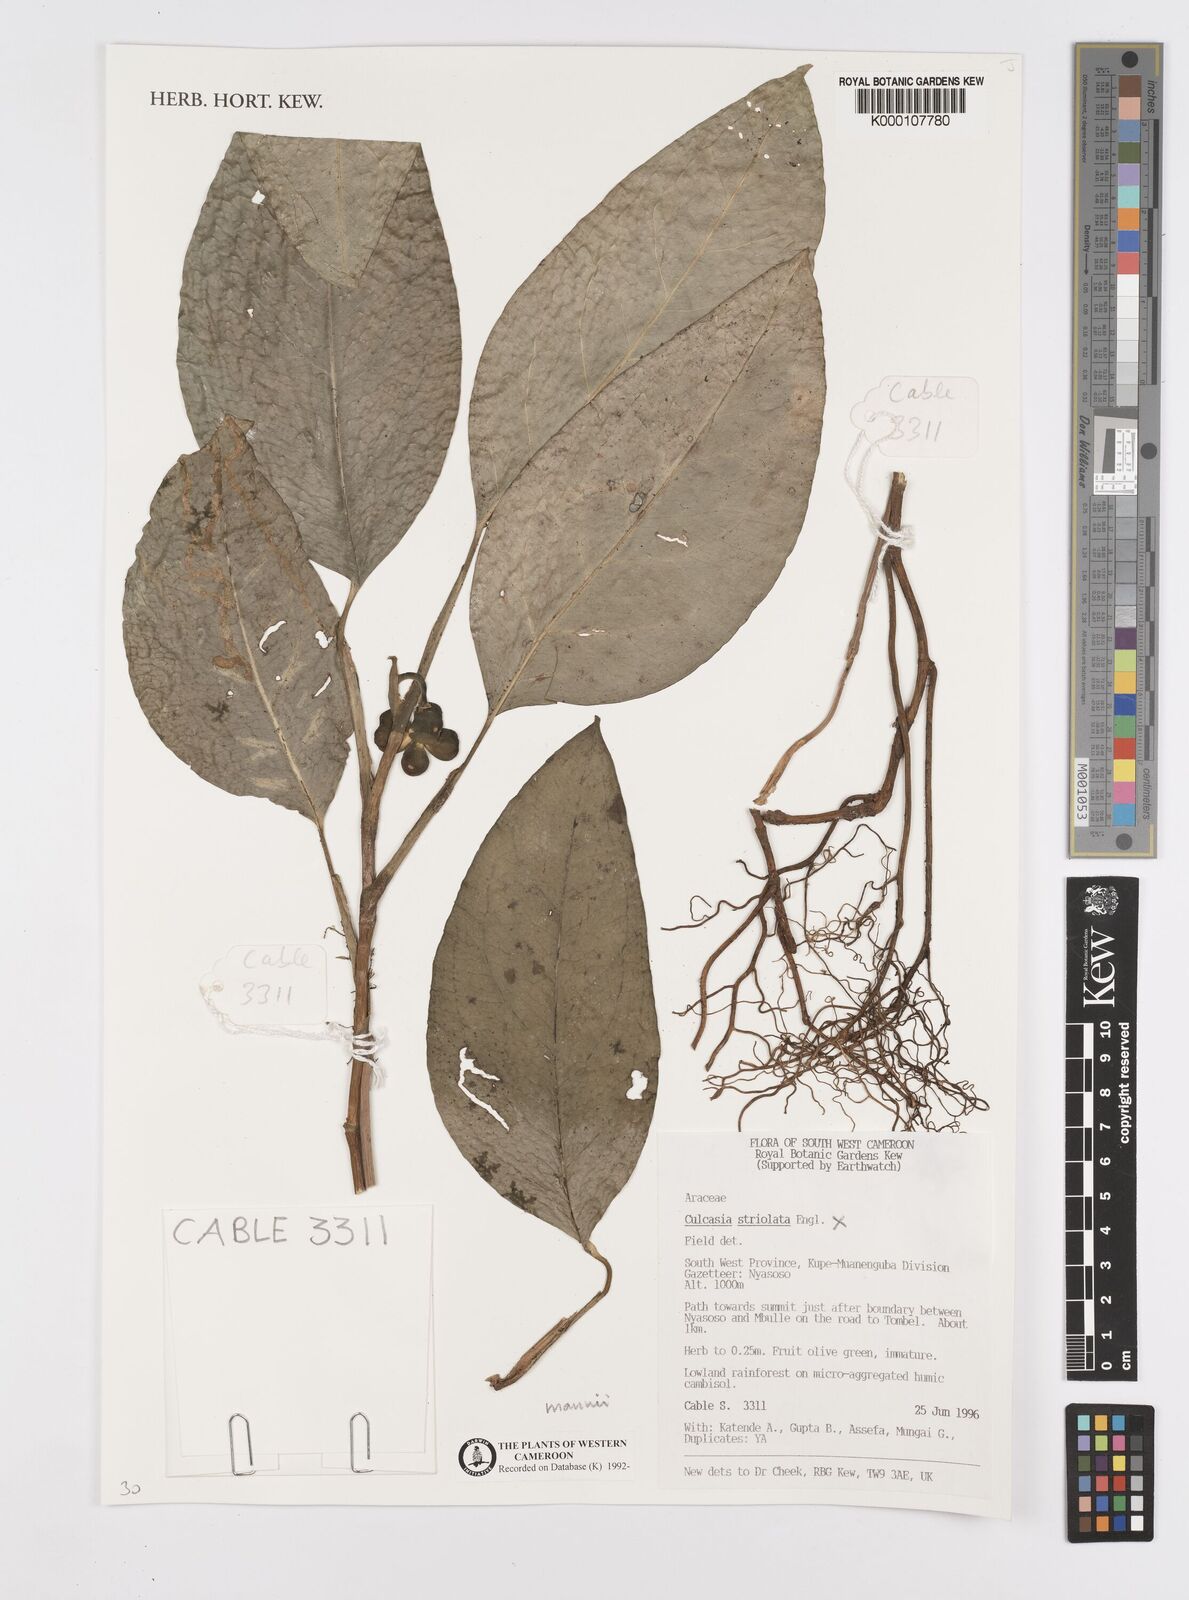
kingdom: Plantae
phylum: Tracheophyta
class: Liliopsida
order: Alismatales
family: Araceae
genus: Culcasia
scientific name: Culcasia striolata
